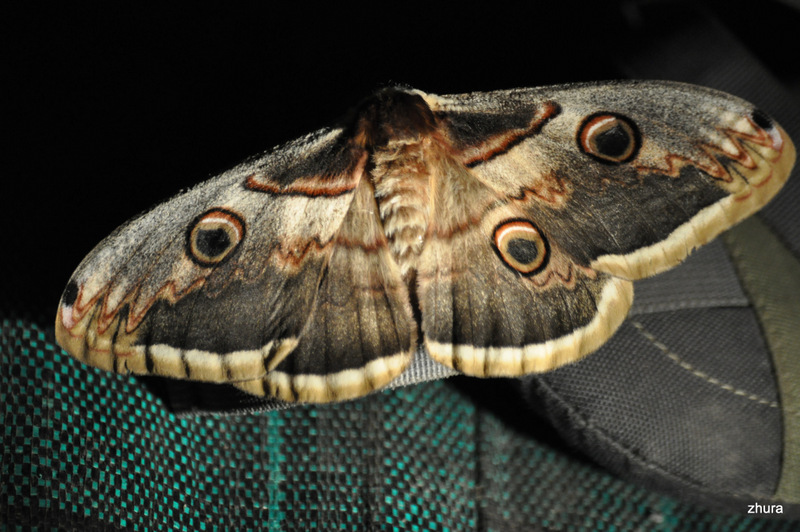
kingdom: Animalia
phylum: Arthropoda
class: Insecta
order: Lepidoptera
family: Saturniidae
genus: Saturnia
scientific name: Saturnia pyri
